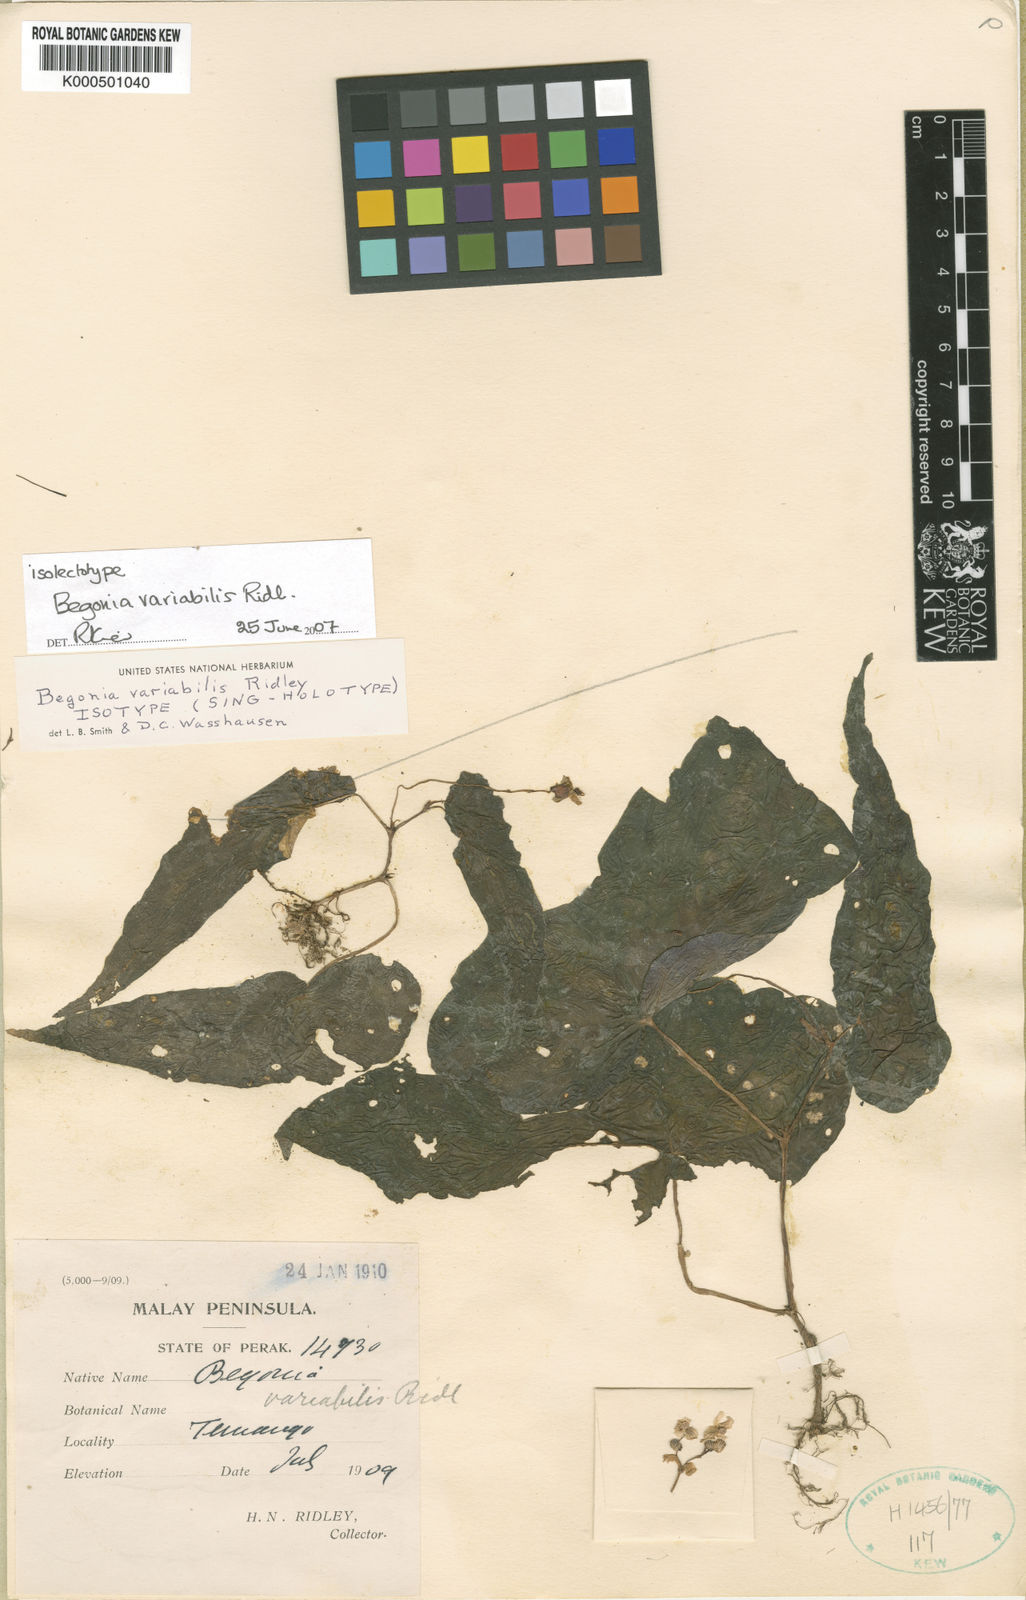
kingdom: Plantae
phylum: Tracheophyta
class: Magnoliopsida
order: Cucurbitales
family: Begoniaceae
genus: Begonia
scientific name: Begonia variabilis
